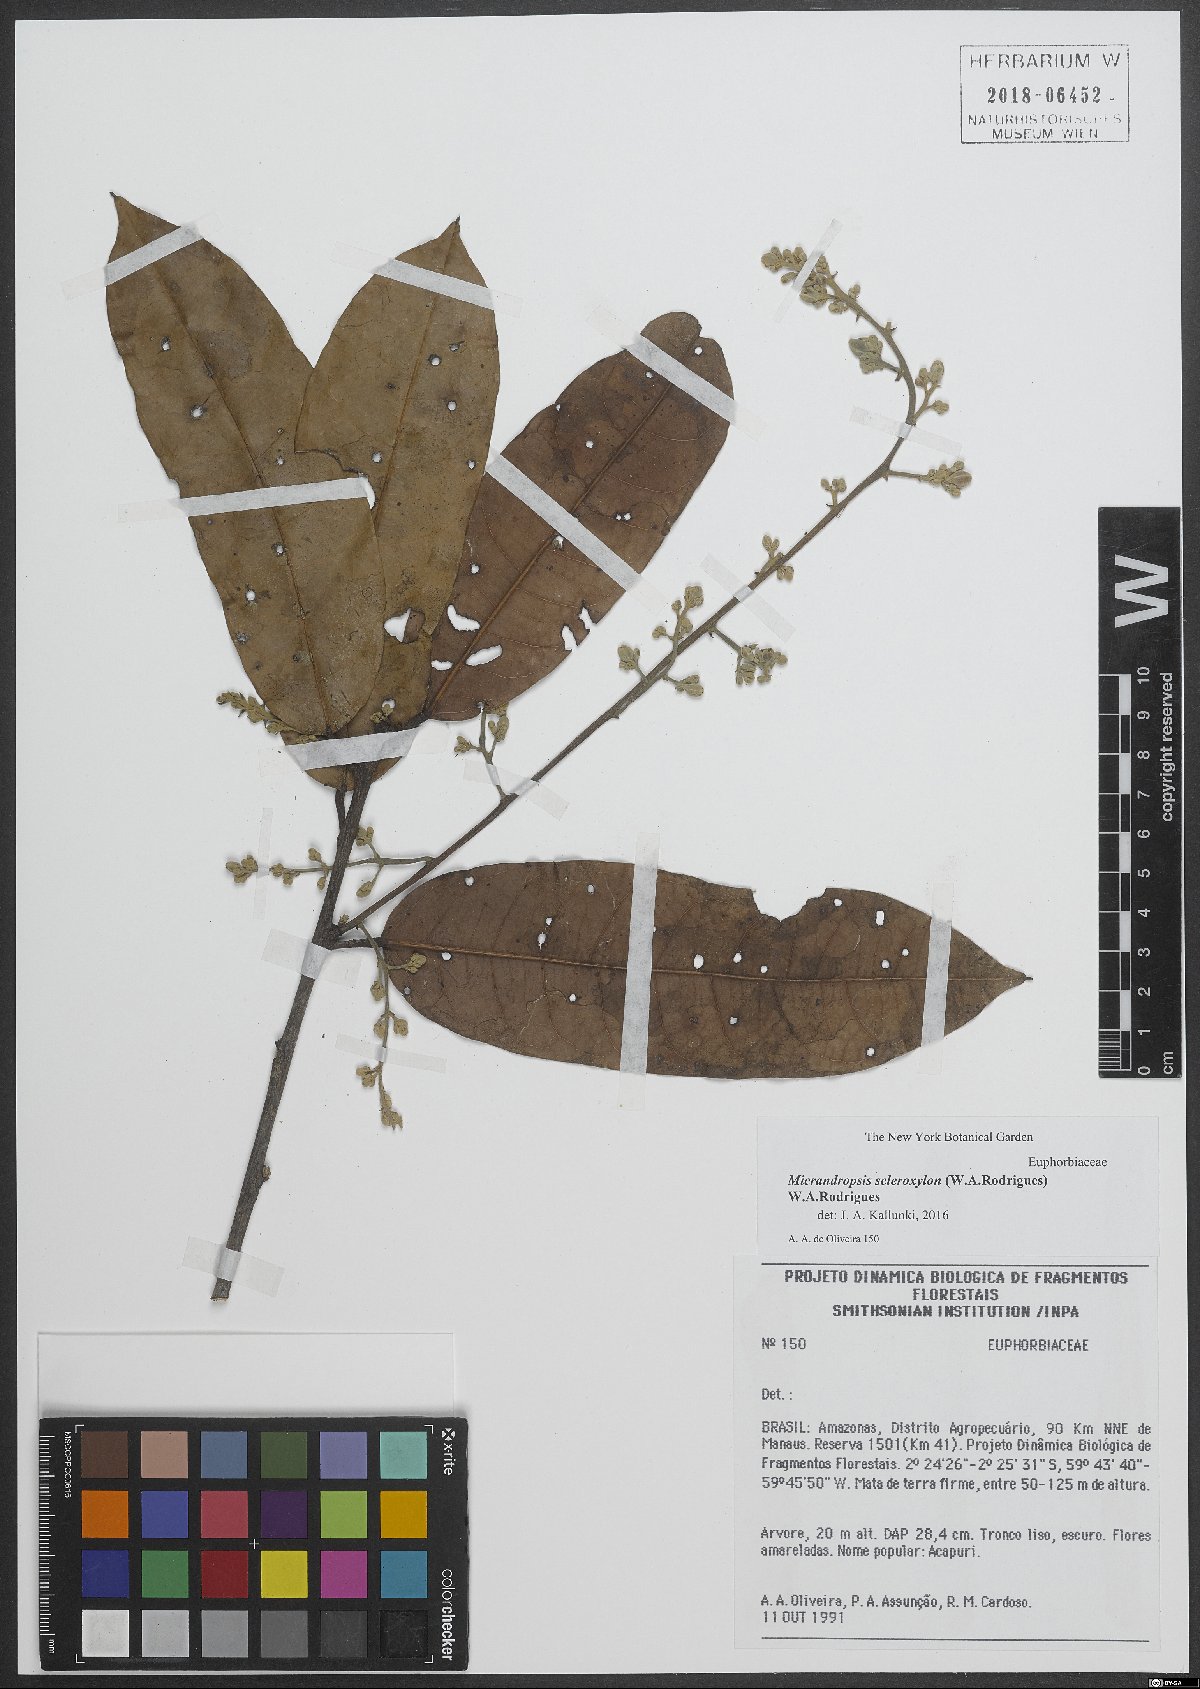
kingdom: Plantae
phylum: Tracheophyta
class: Magnoliopsida
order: Malpighiales
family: Euphorbiaceae
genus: Micrandropsis
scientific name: Micrandropsis scleroxylon
